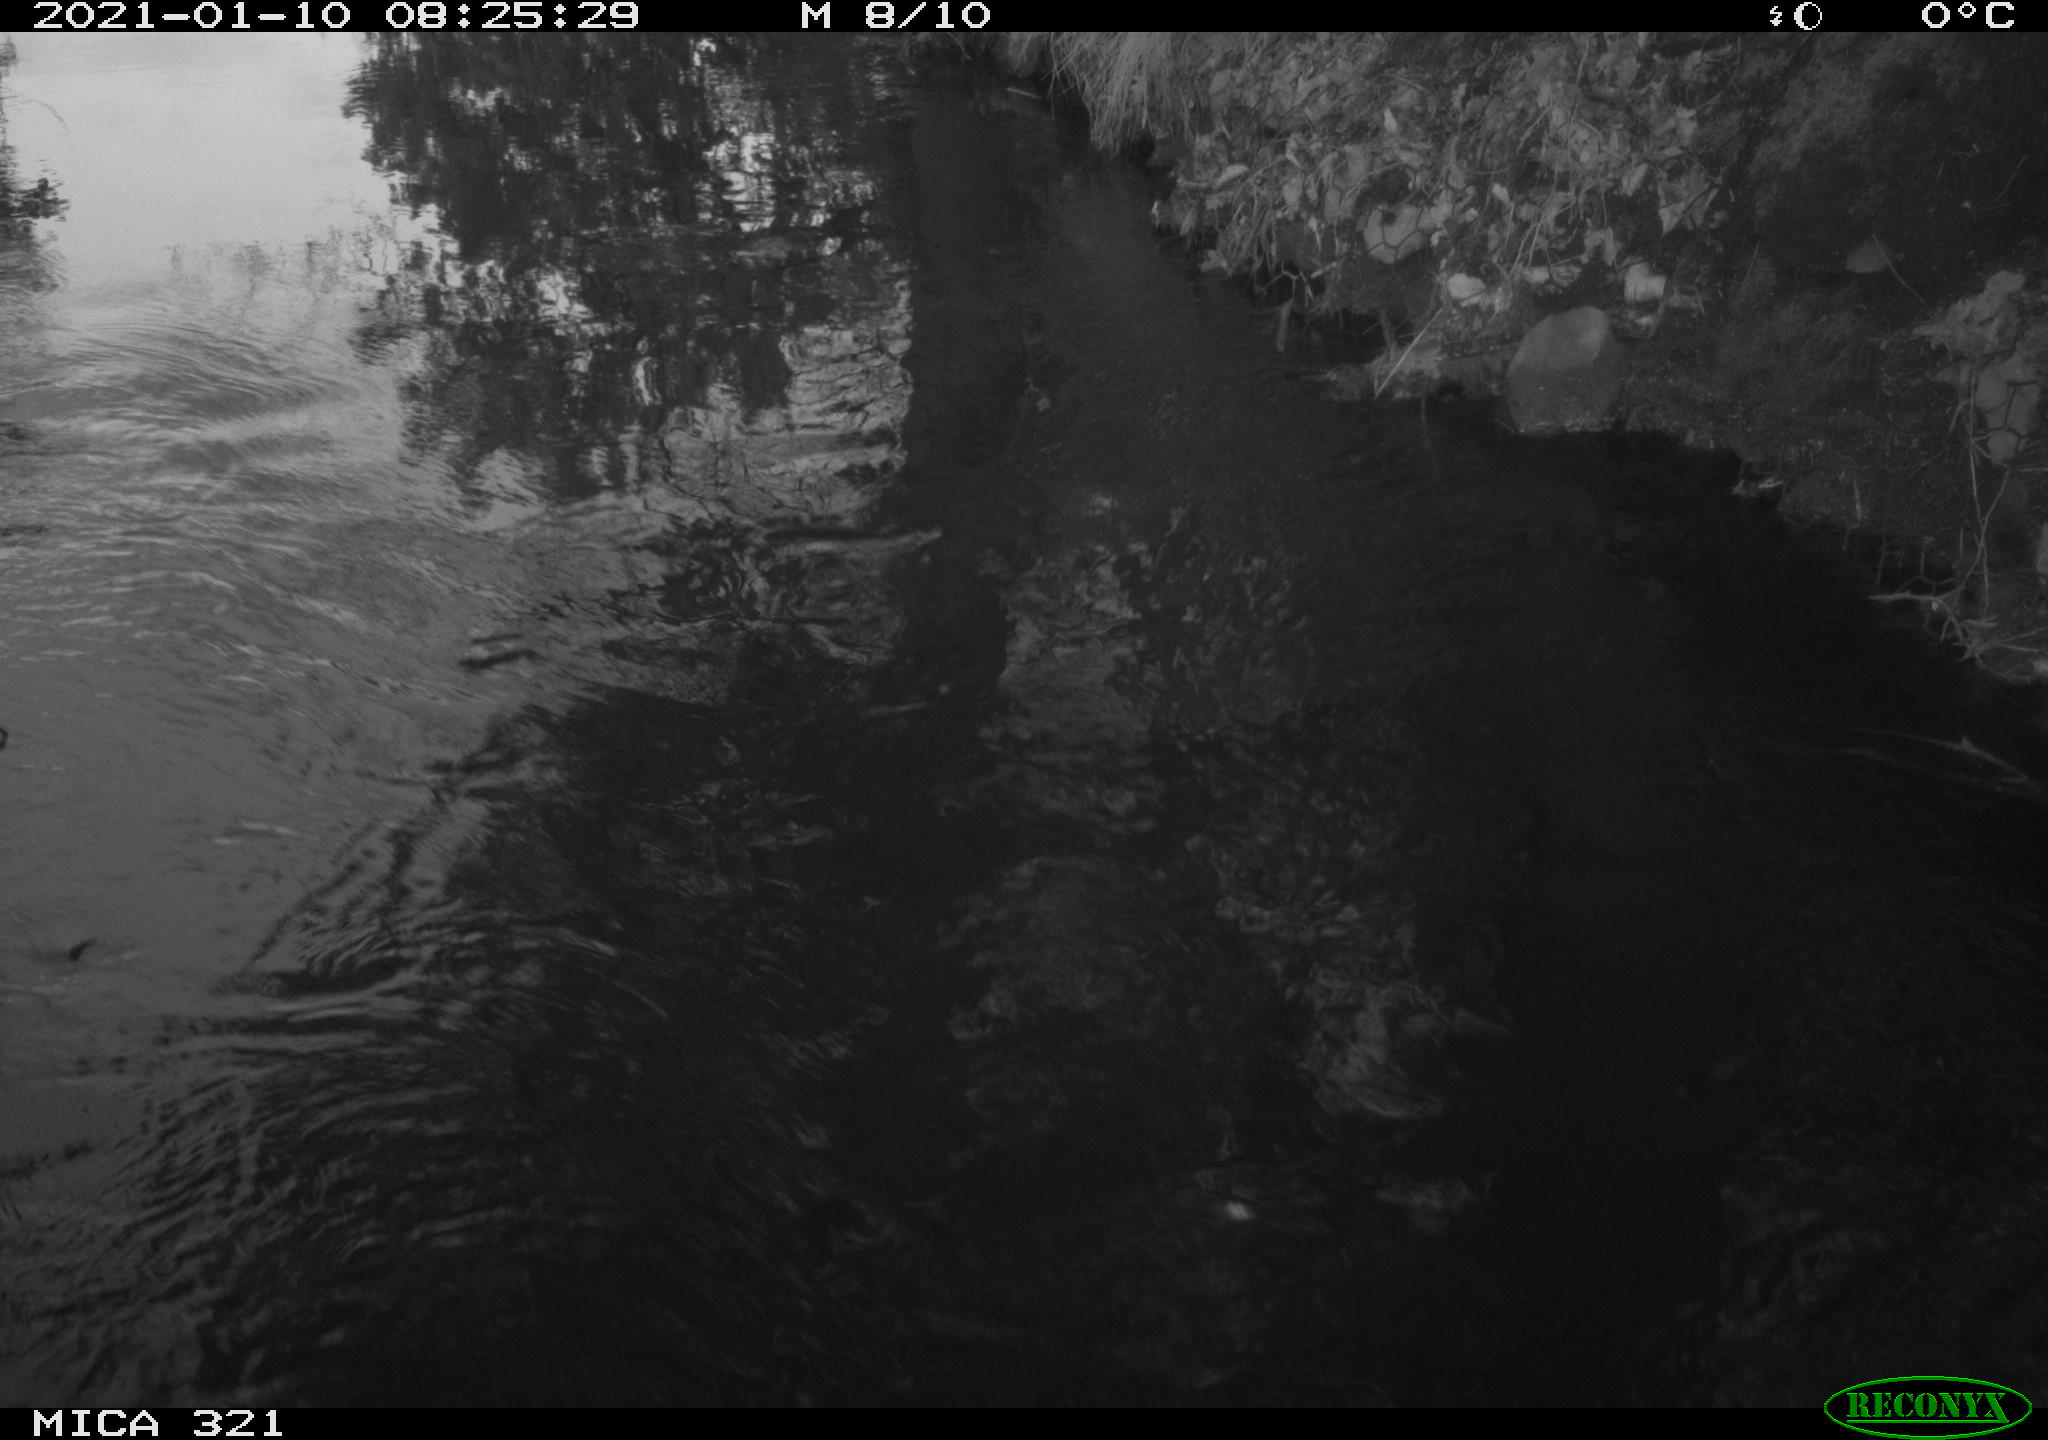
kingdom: Animalia
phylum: Chordata
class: Aves
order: Anseriformes
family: Anatidae
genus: Anas
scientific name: Anas platyrhynchos
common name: Mallard
